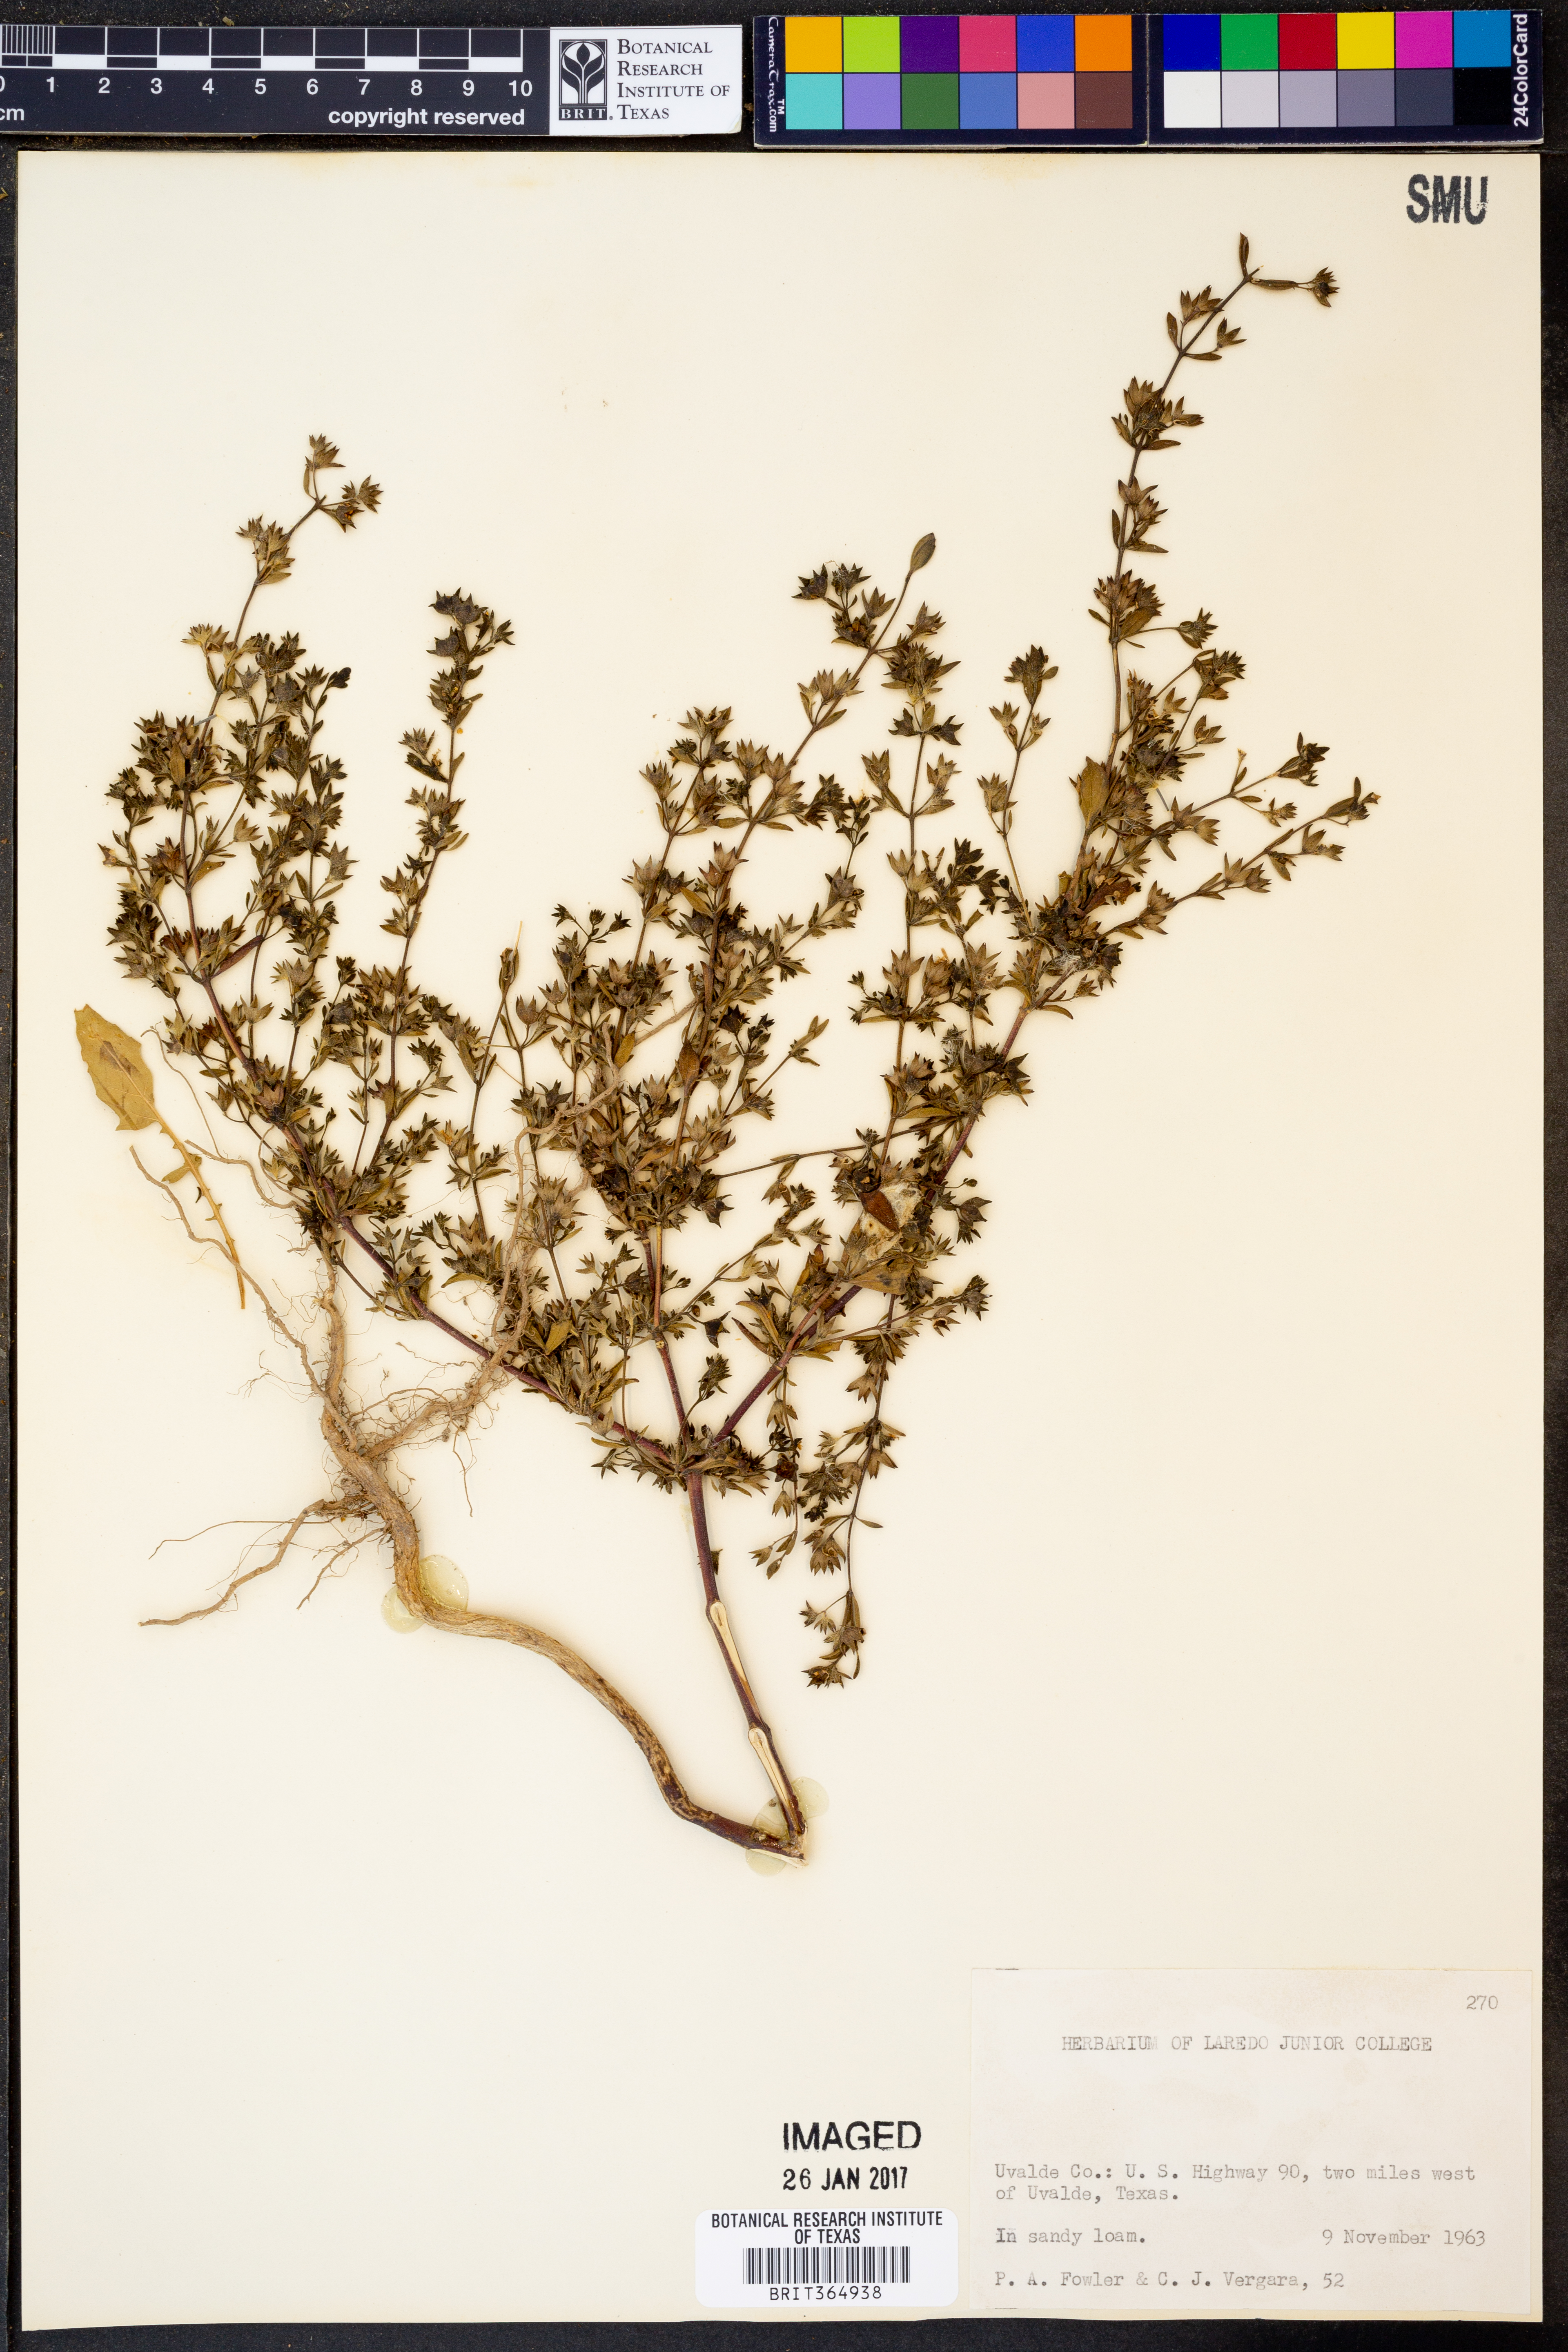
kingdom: Plantae
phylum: Tracheophyta
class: Magnoliopsida
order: Lamiales
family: Lamiaceae
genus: Trichostema
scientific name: Trichostema brachiatum
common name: False pennyroyal
